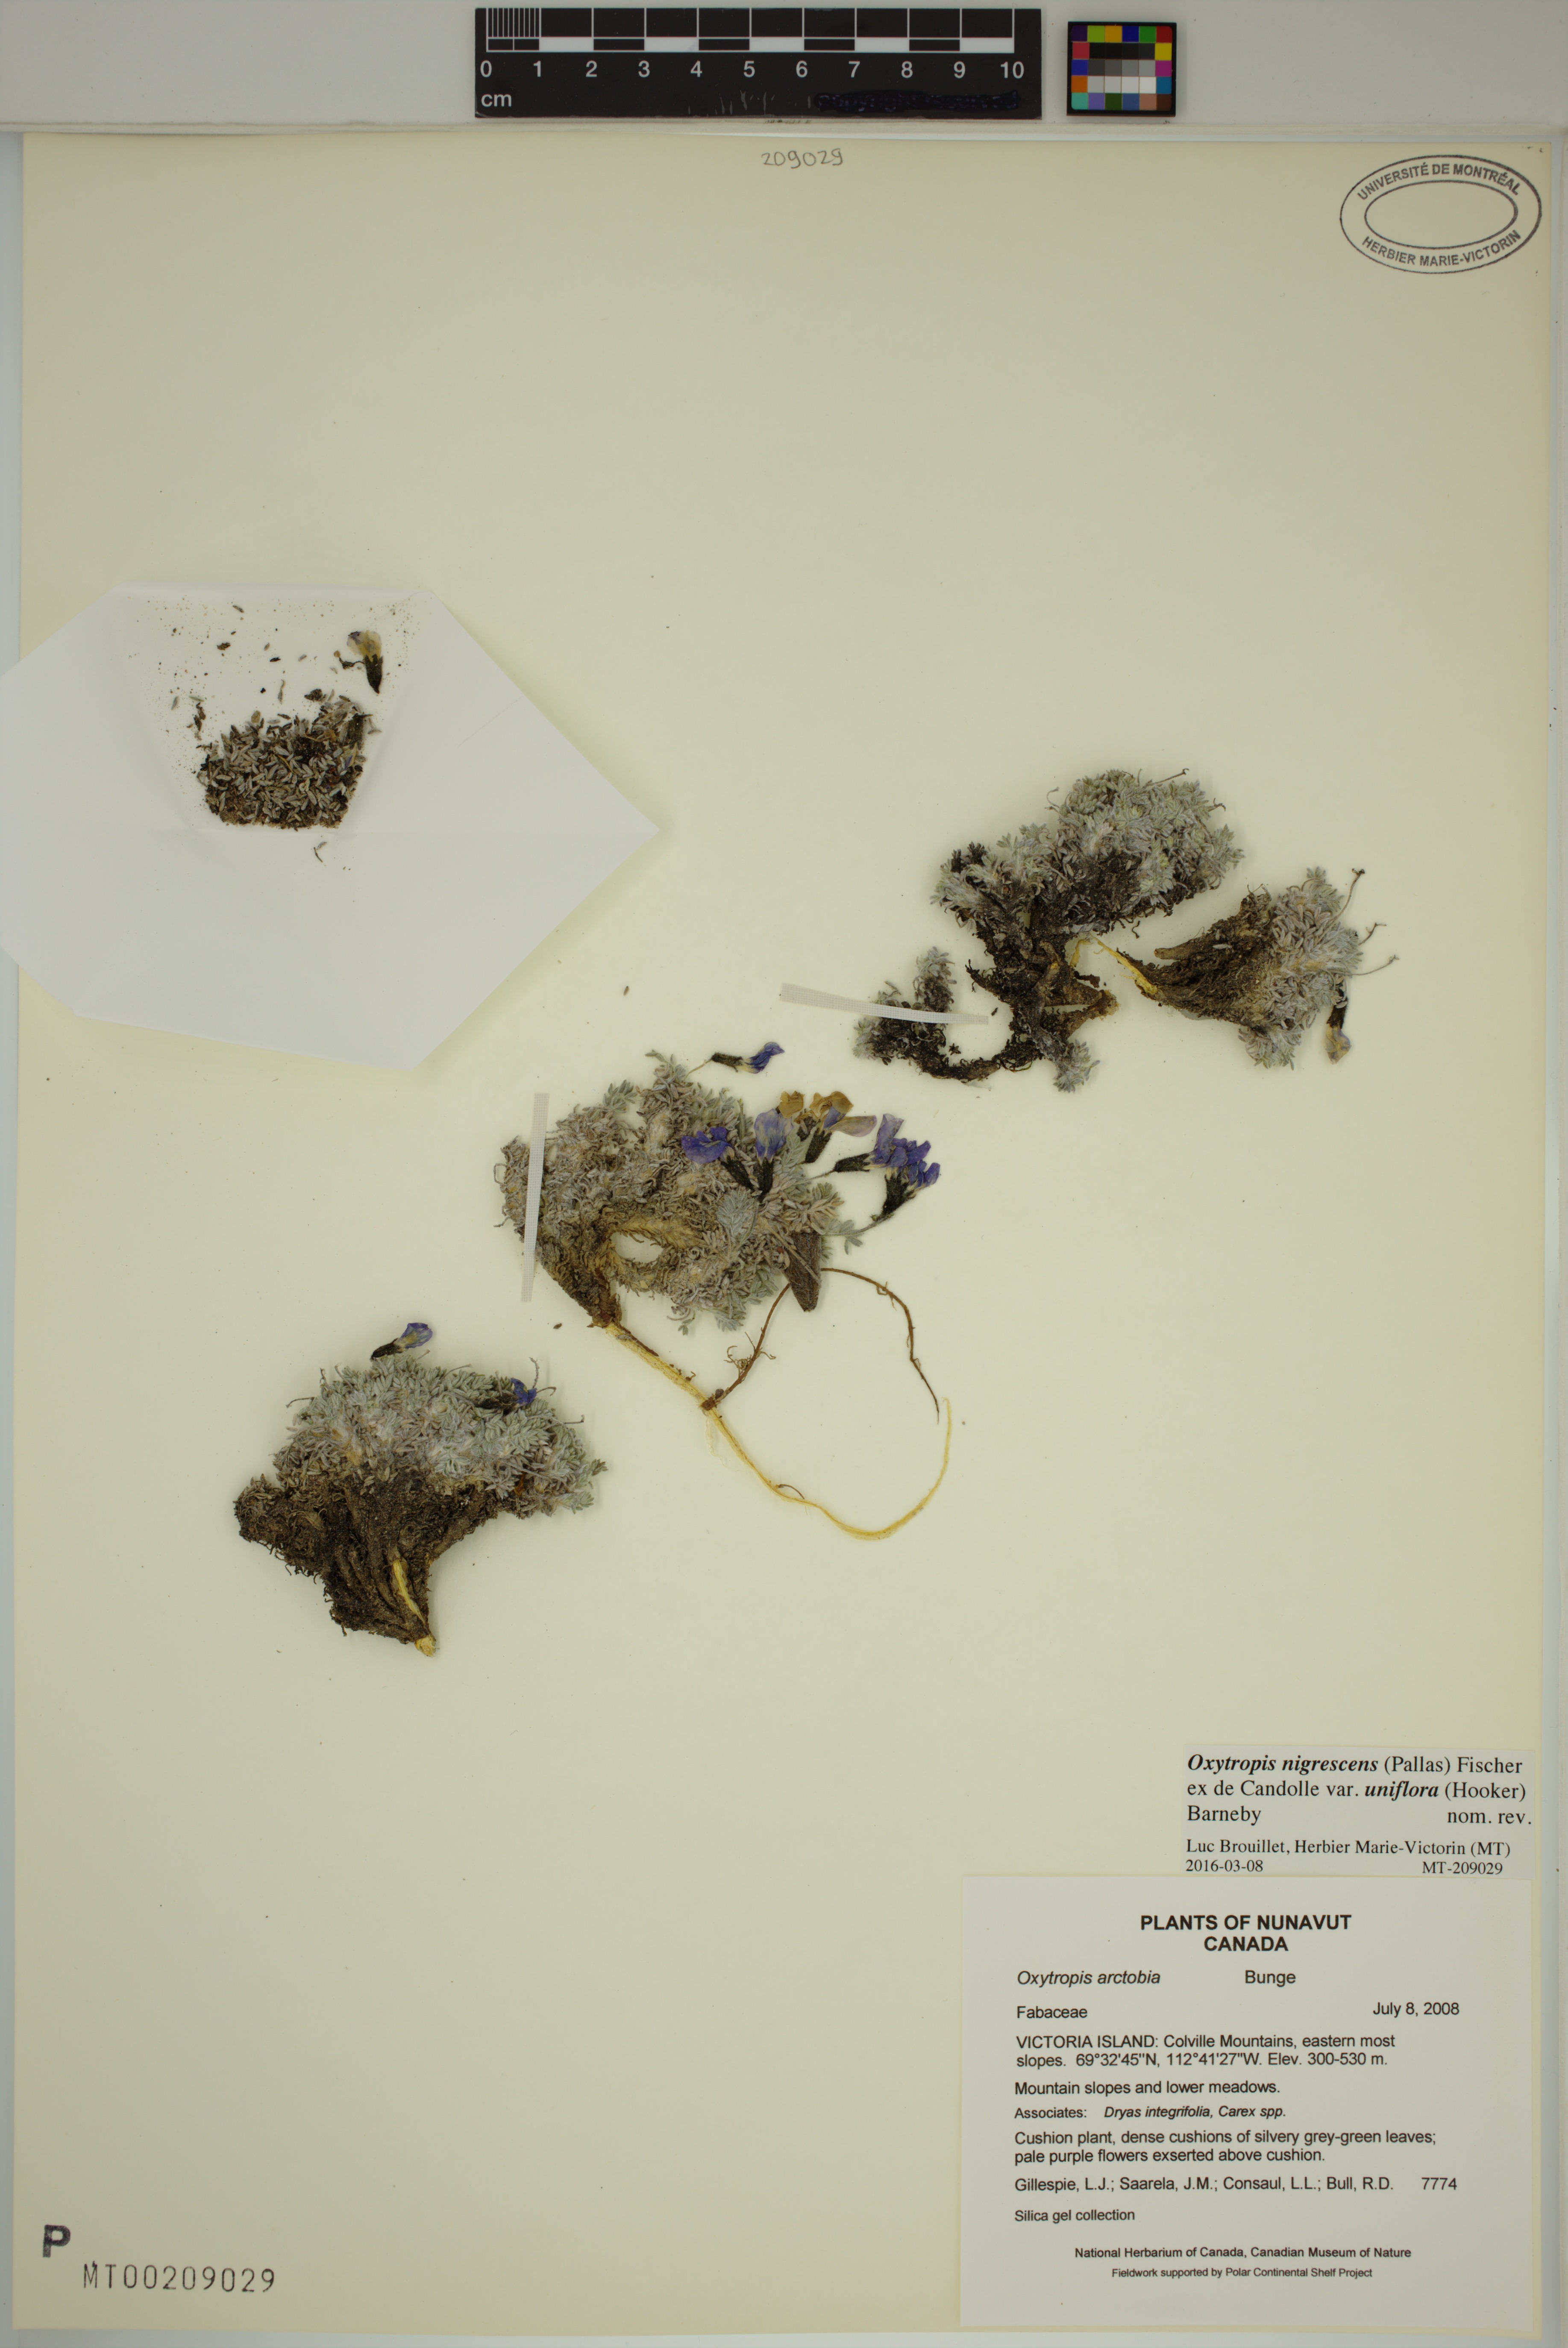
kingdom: Plantae
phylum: Tracheophyta
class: Magnoliopsida
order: Fabales
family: Fabaceae
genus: Oxytropis
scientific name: Oxytropis nigrescens
